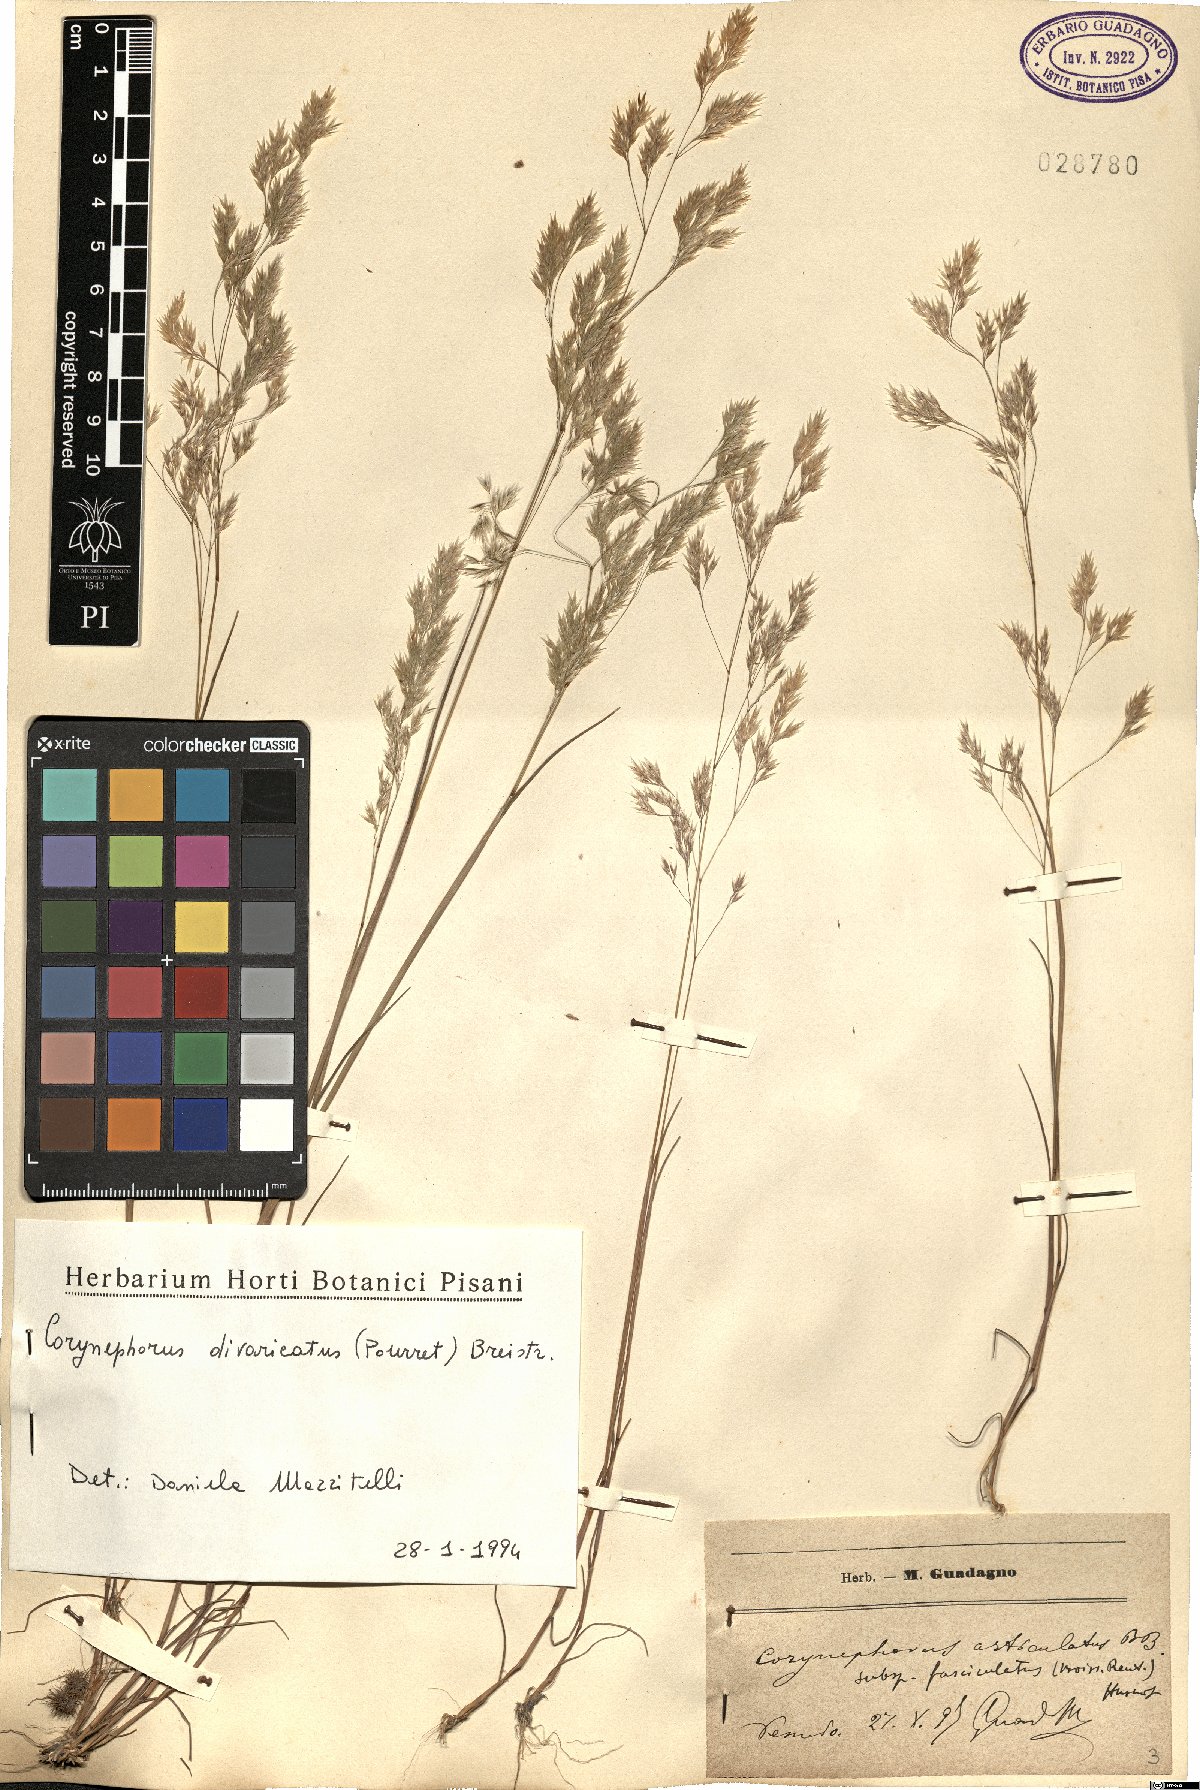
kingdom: Plantae
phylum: Tracheophyta
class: Liliopsida
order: Poales
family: Poaceae
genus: Corynephorus
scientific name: Corynephorus divaricatus
